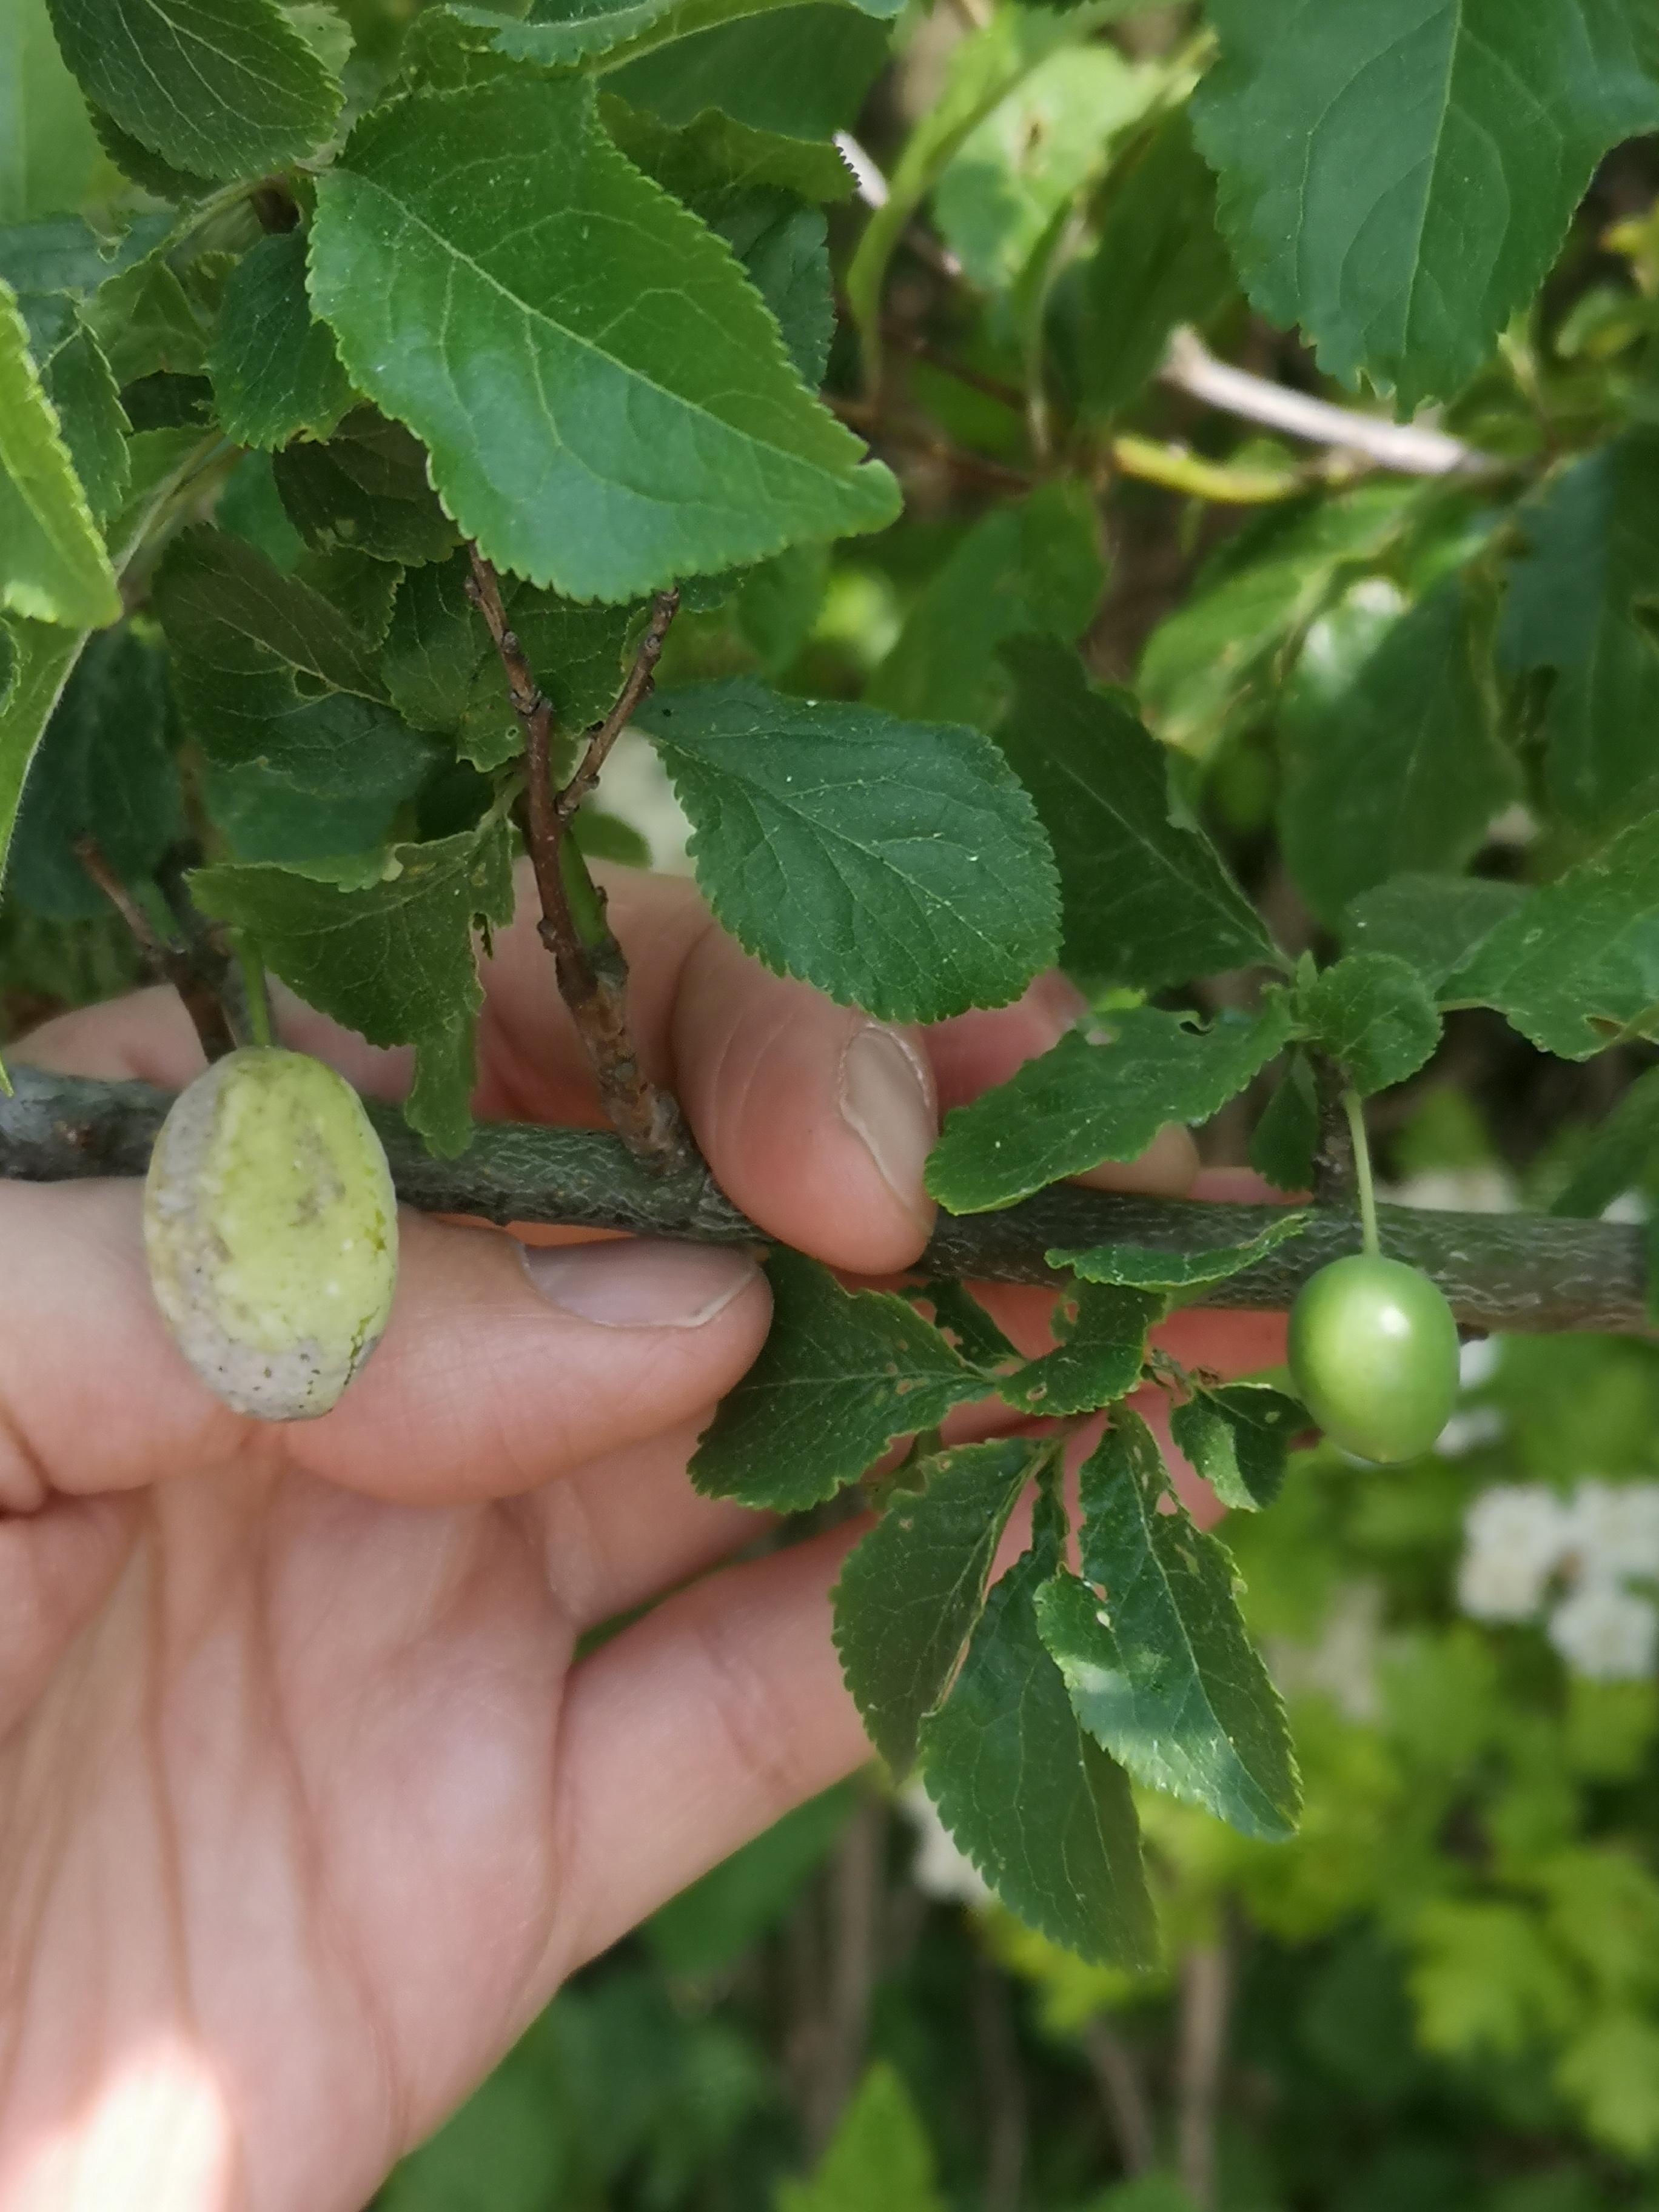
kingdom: Fungi
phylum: Ascomycota
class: Taphrinomycetes
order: Taphrinales
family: Taphrinaceae
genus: Taphrina
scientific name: Taphrina pruni
